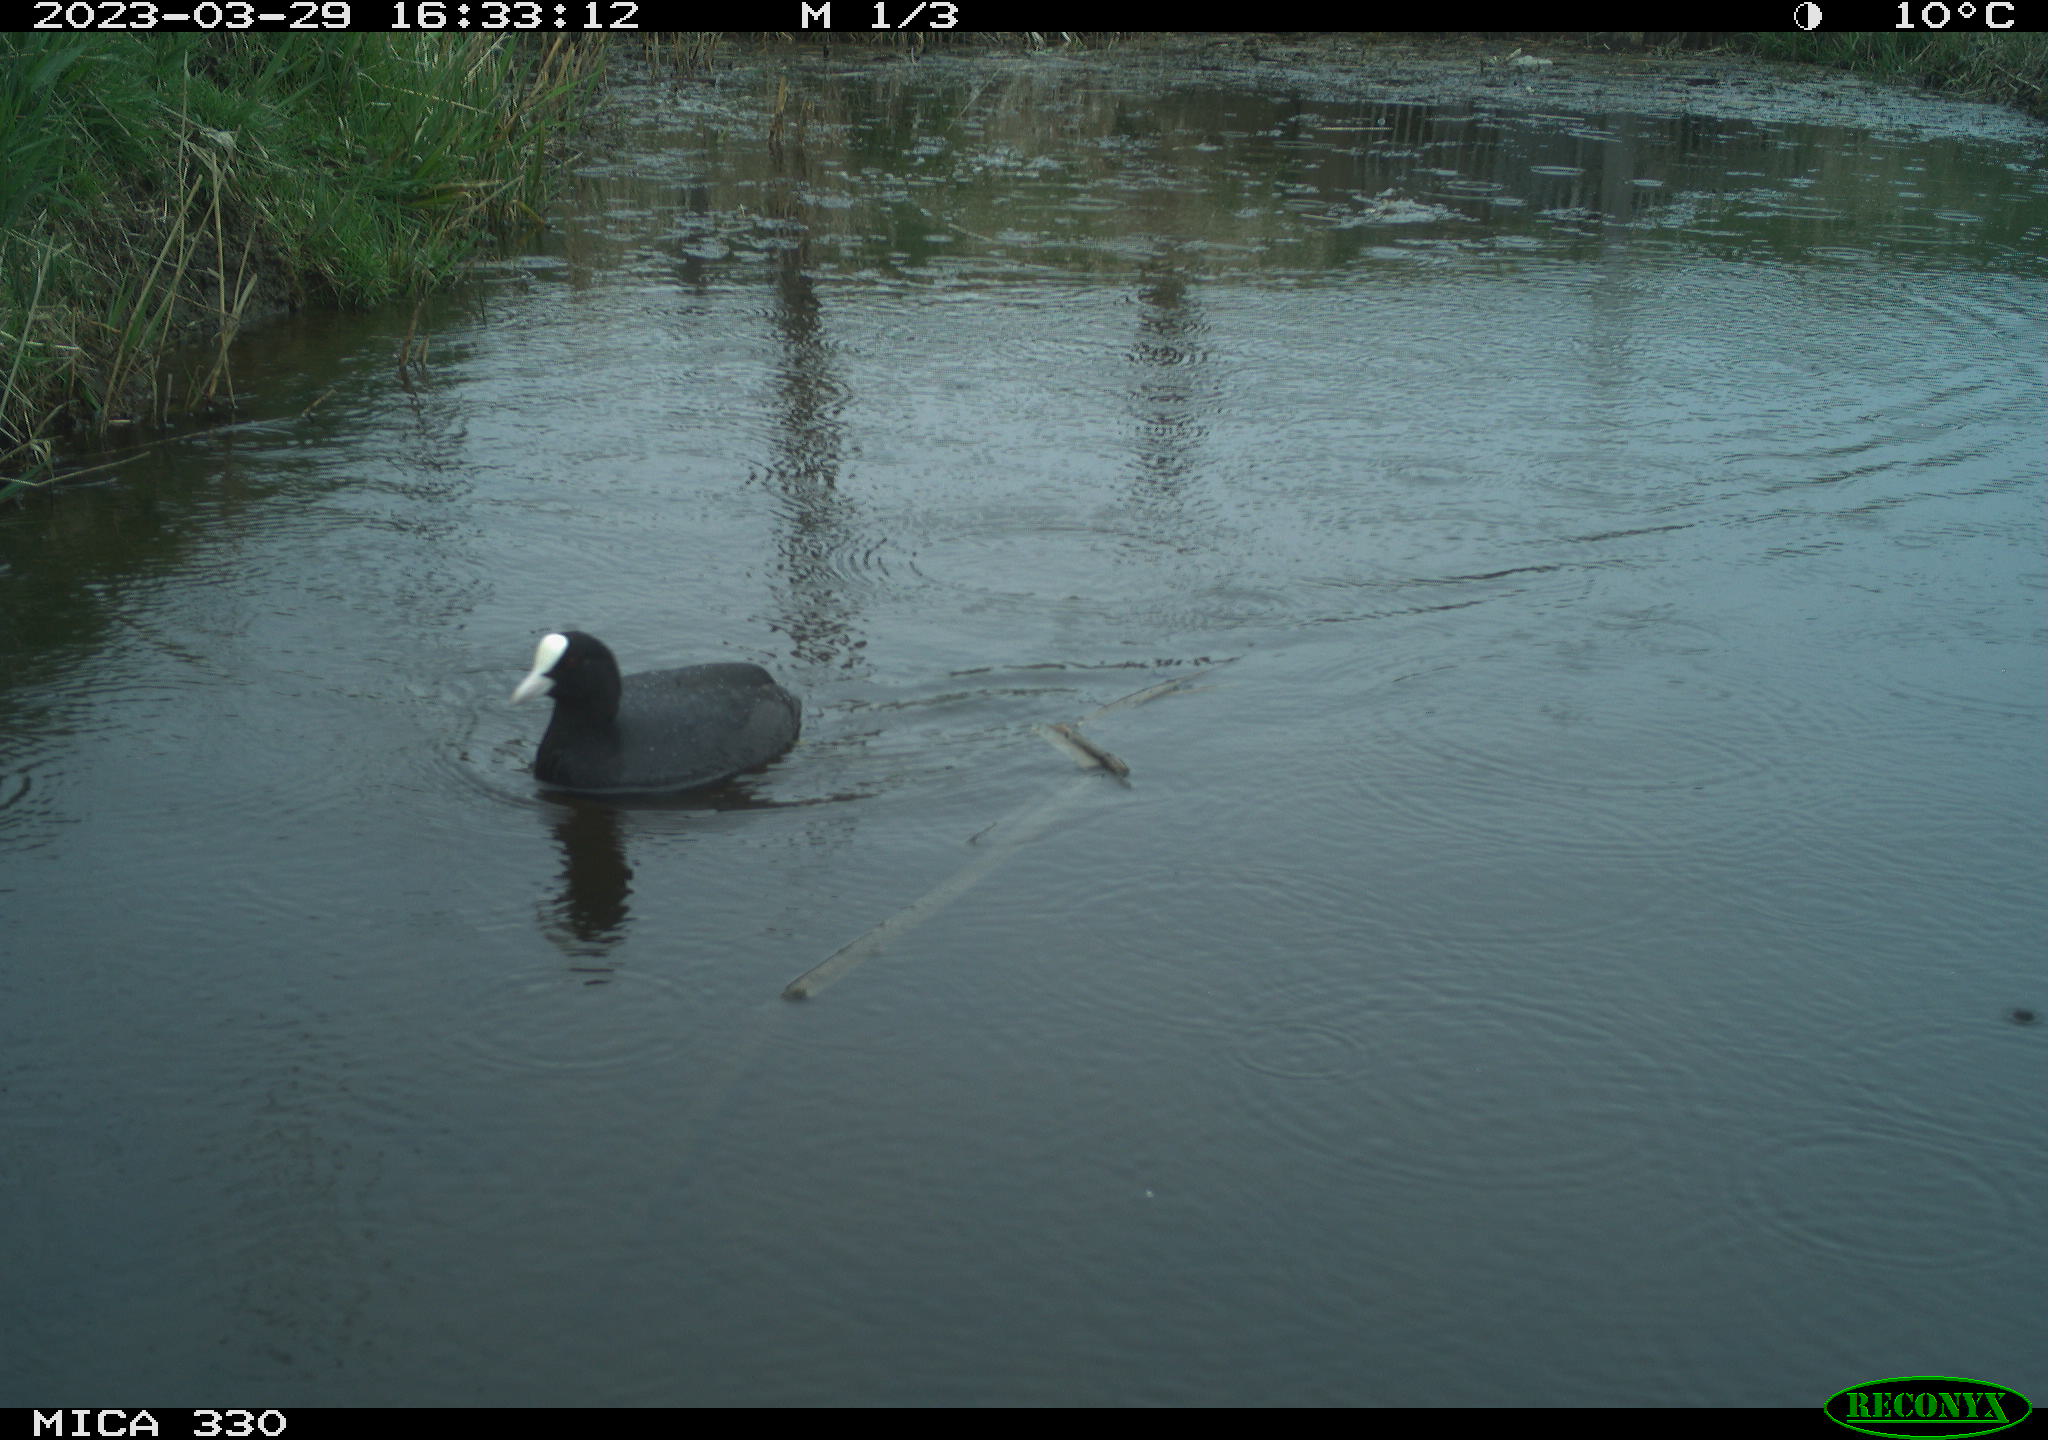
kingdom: Animalia
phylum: Chordata
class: Aves
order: Gruiformes
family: Rallidae
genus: Fulica
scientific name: Fulica atra
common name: Eurasian coot
